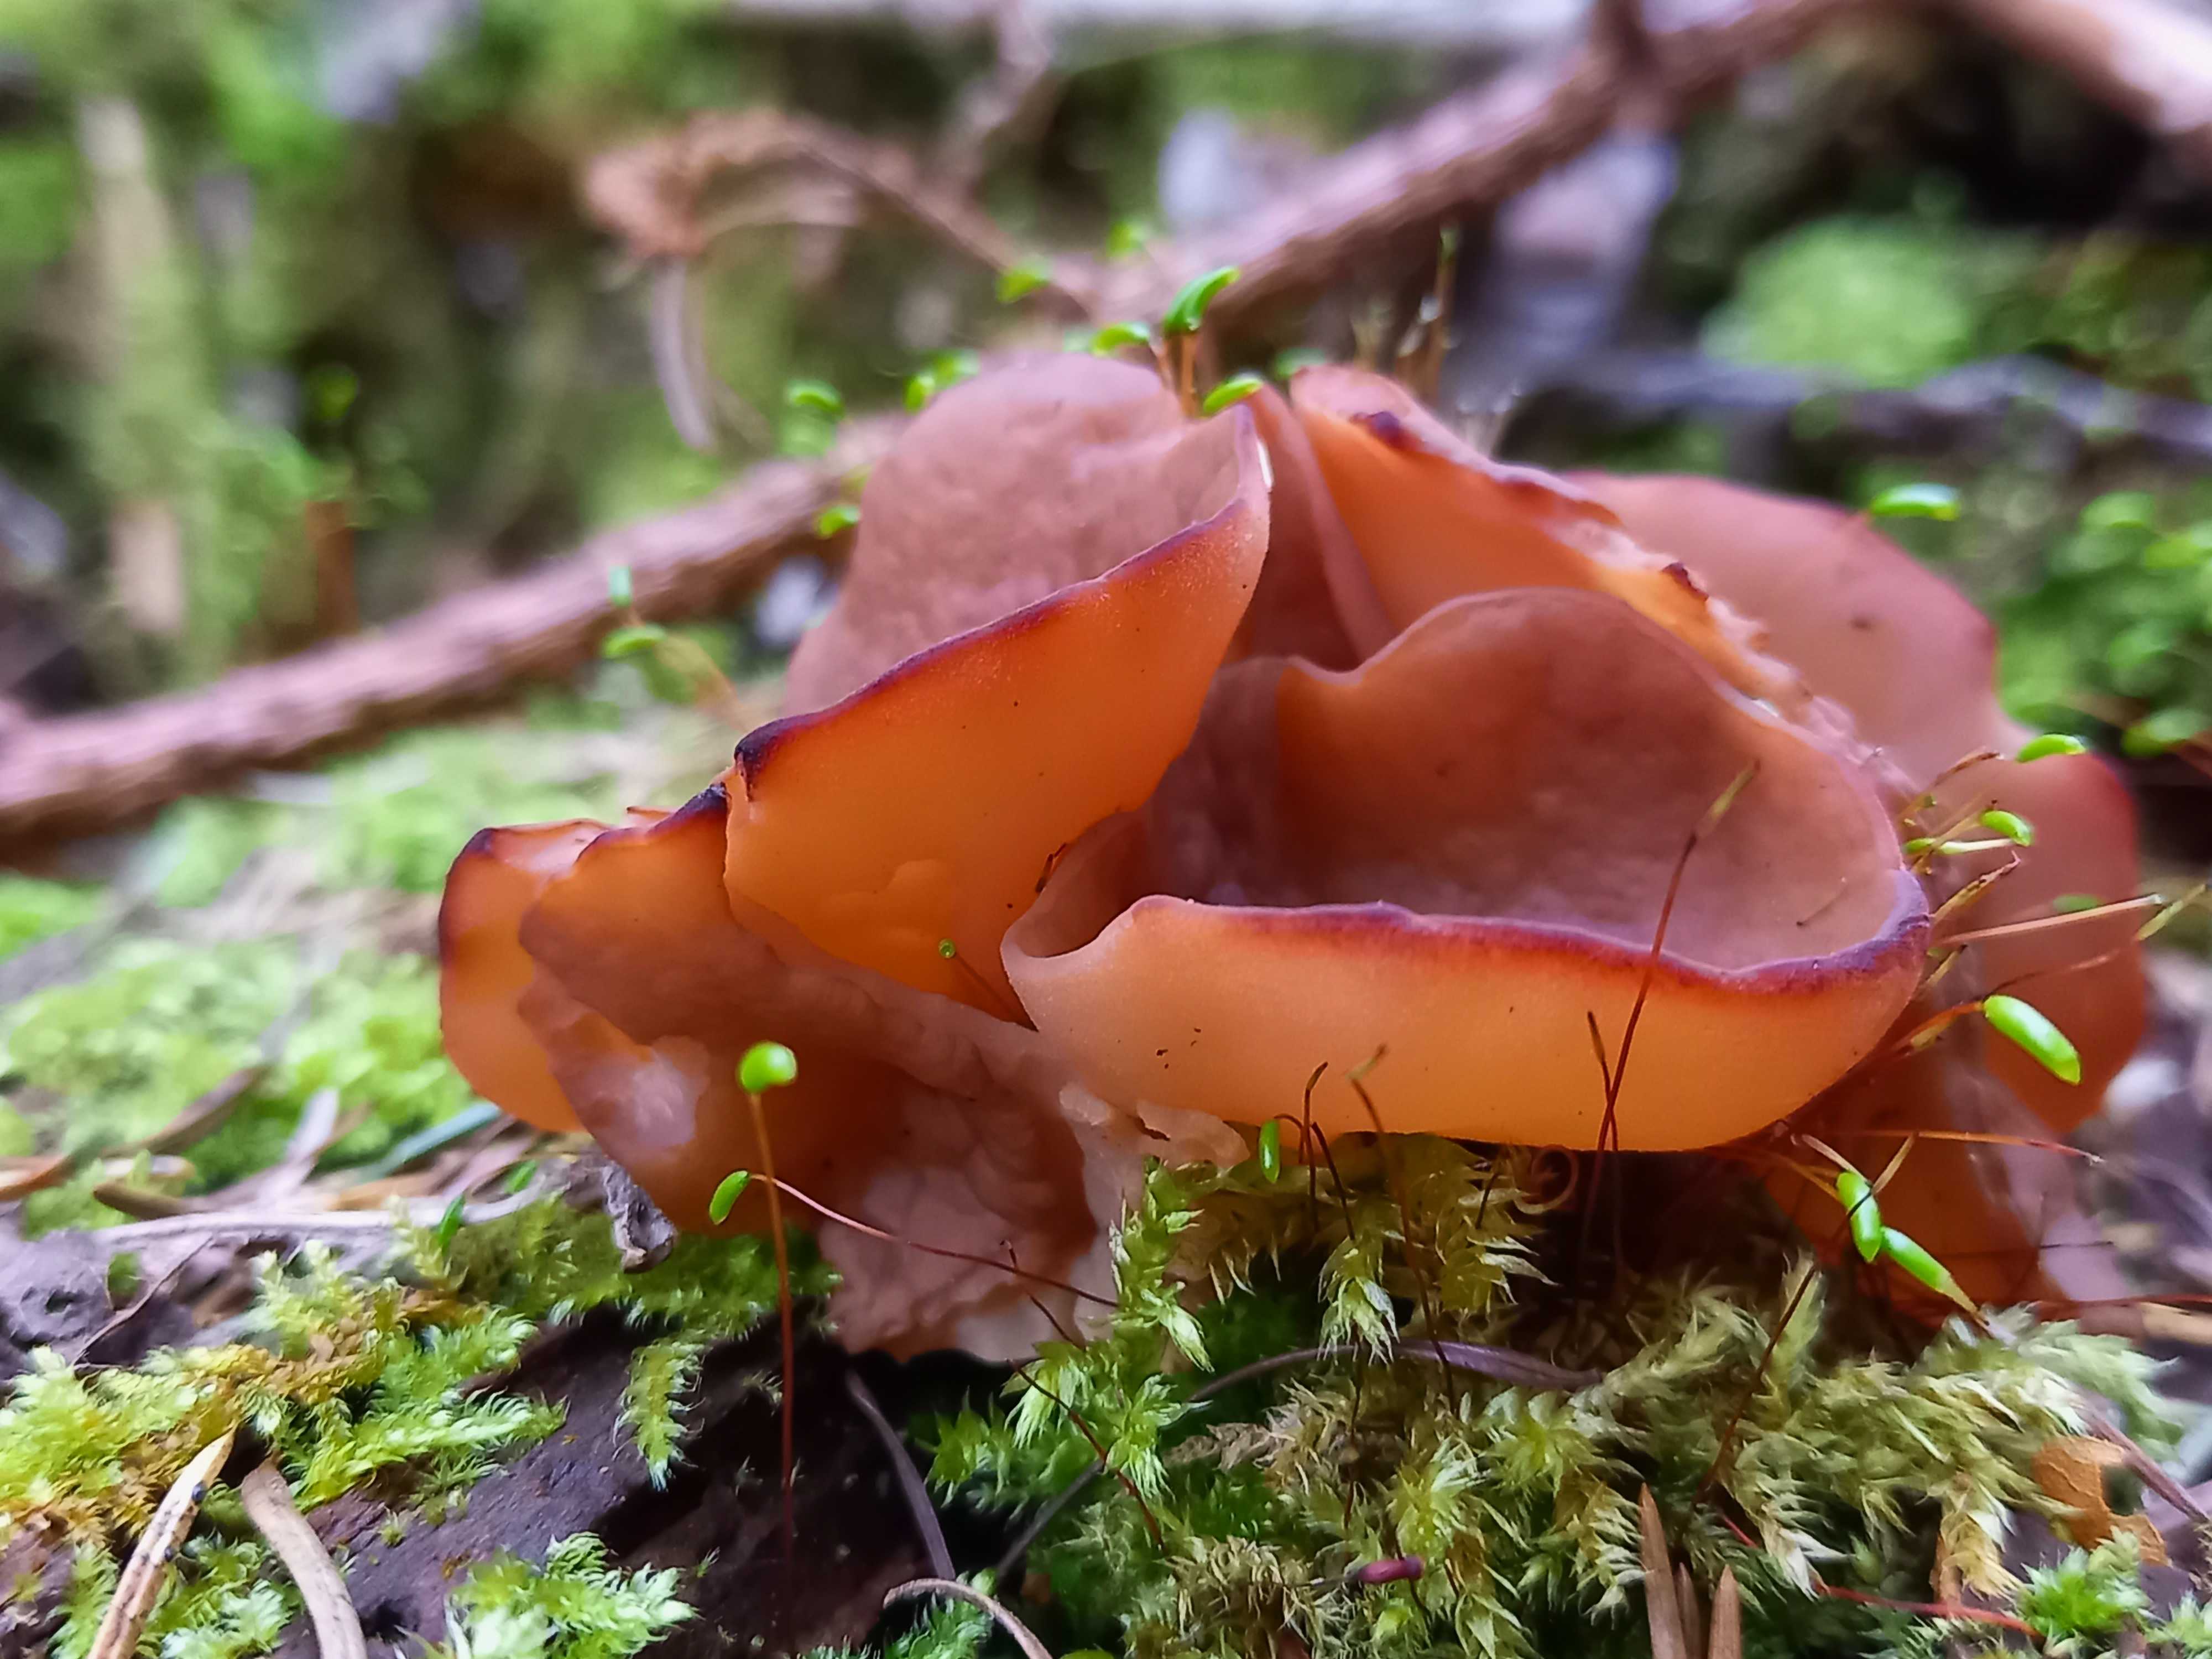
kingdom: Fungi
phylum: Ascomycota
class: Pezizomycetes
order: Pezizales
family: Discinaceae
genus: Discina
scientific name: Discina ancilis
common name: udbredt stenmorkel
